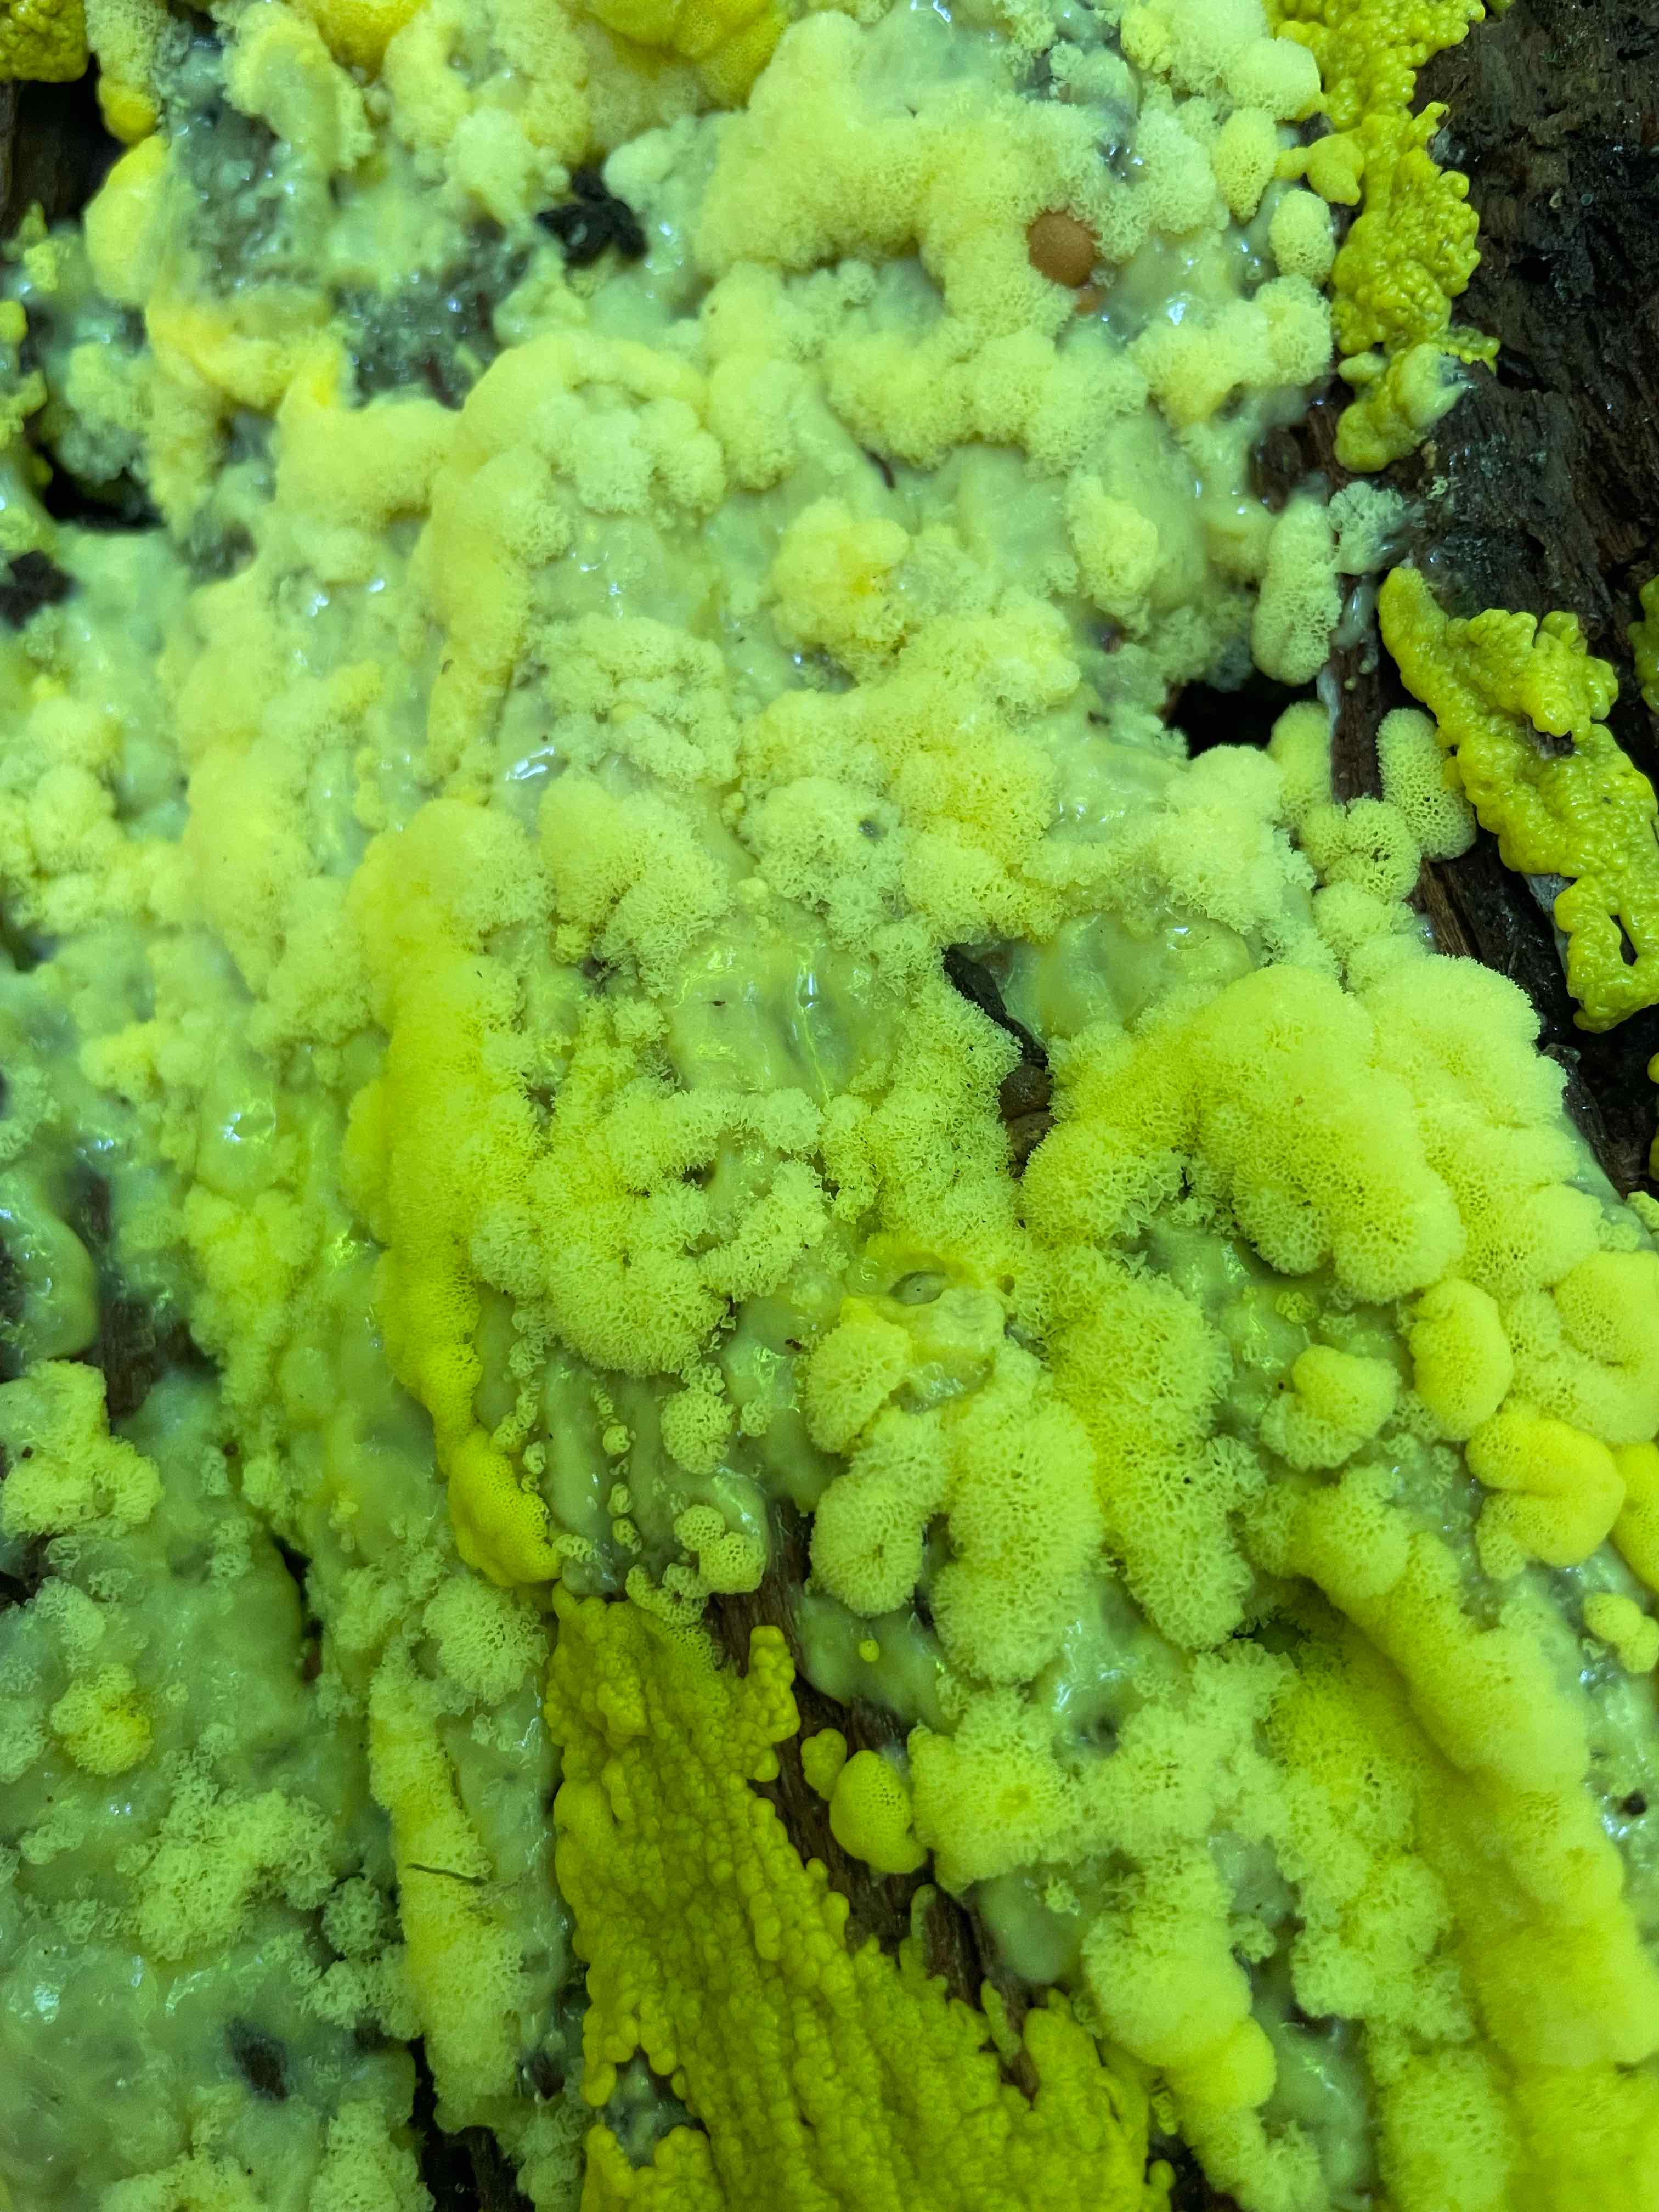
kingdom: Protozoa
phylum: Mycetozoa
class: Protosteliomycetes
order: Ceratiomyxales
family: Ceratiomyxaceae
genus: Ceratiomyxa
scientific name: Ceratiomyxa fruticulosa
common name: Honeycomb coral slime mold
